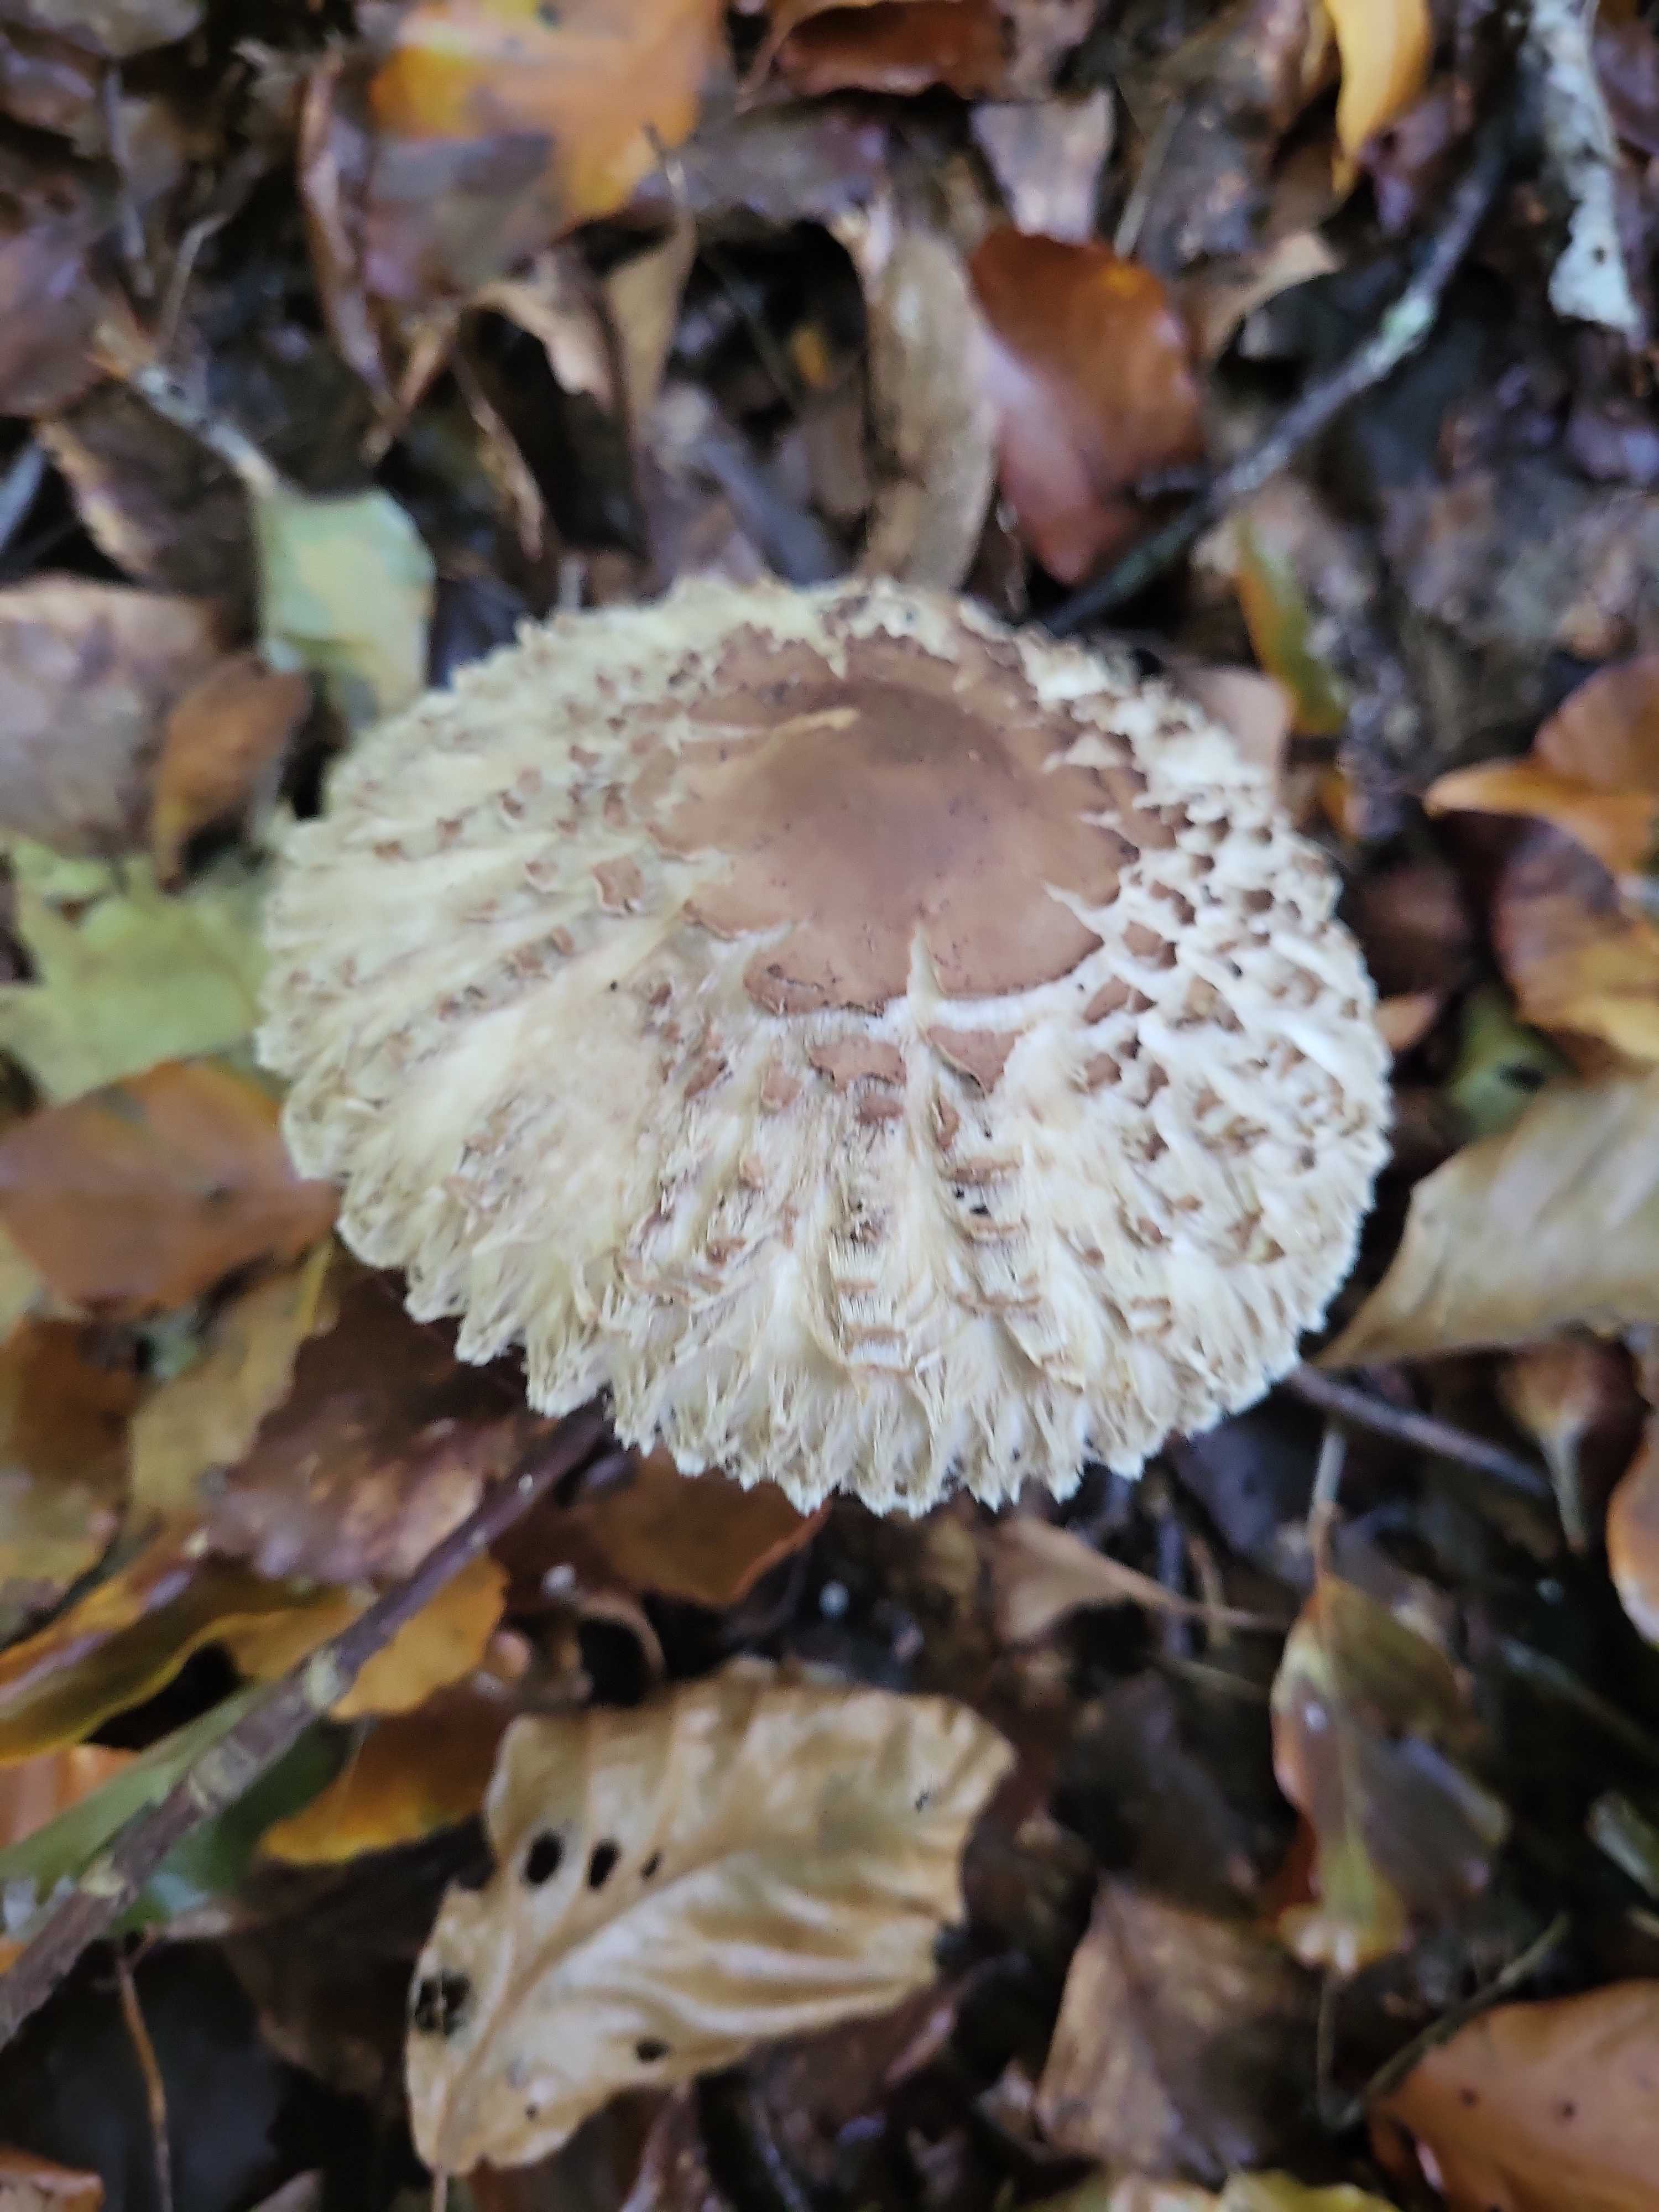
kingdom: Fungi
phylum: Basidiomycota
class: Agaricomycetes
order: Agaricales
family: Agaricaceae
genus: Chlorophyllum
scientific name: Chlorophyllum olivieri
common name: almindelig rabarberhat
